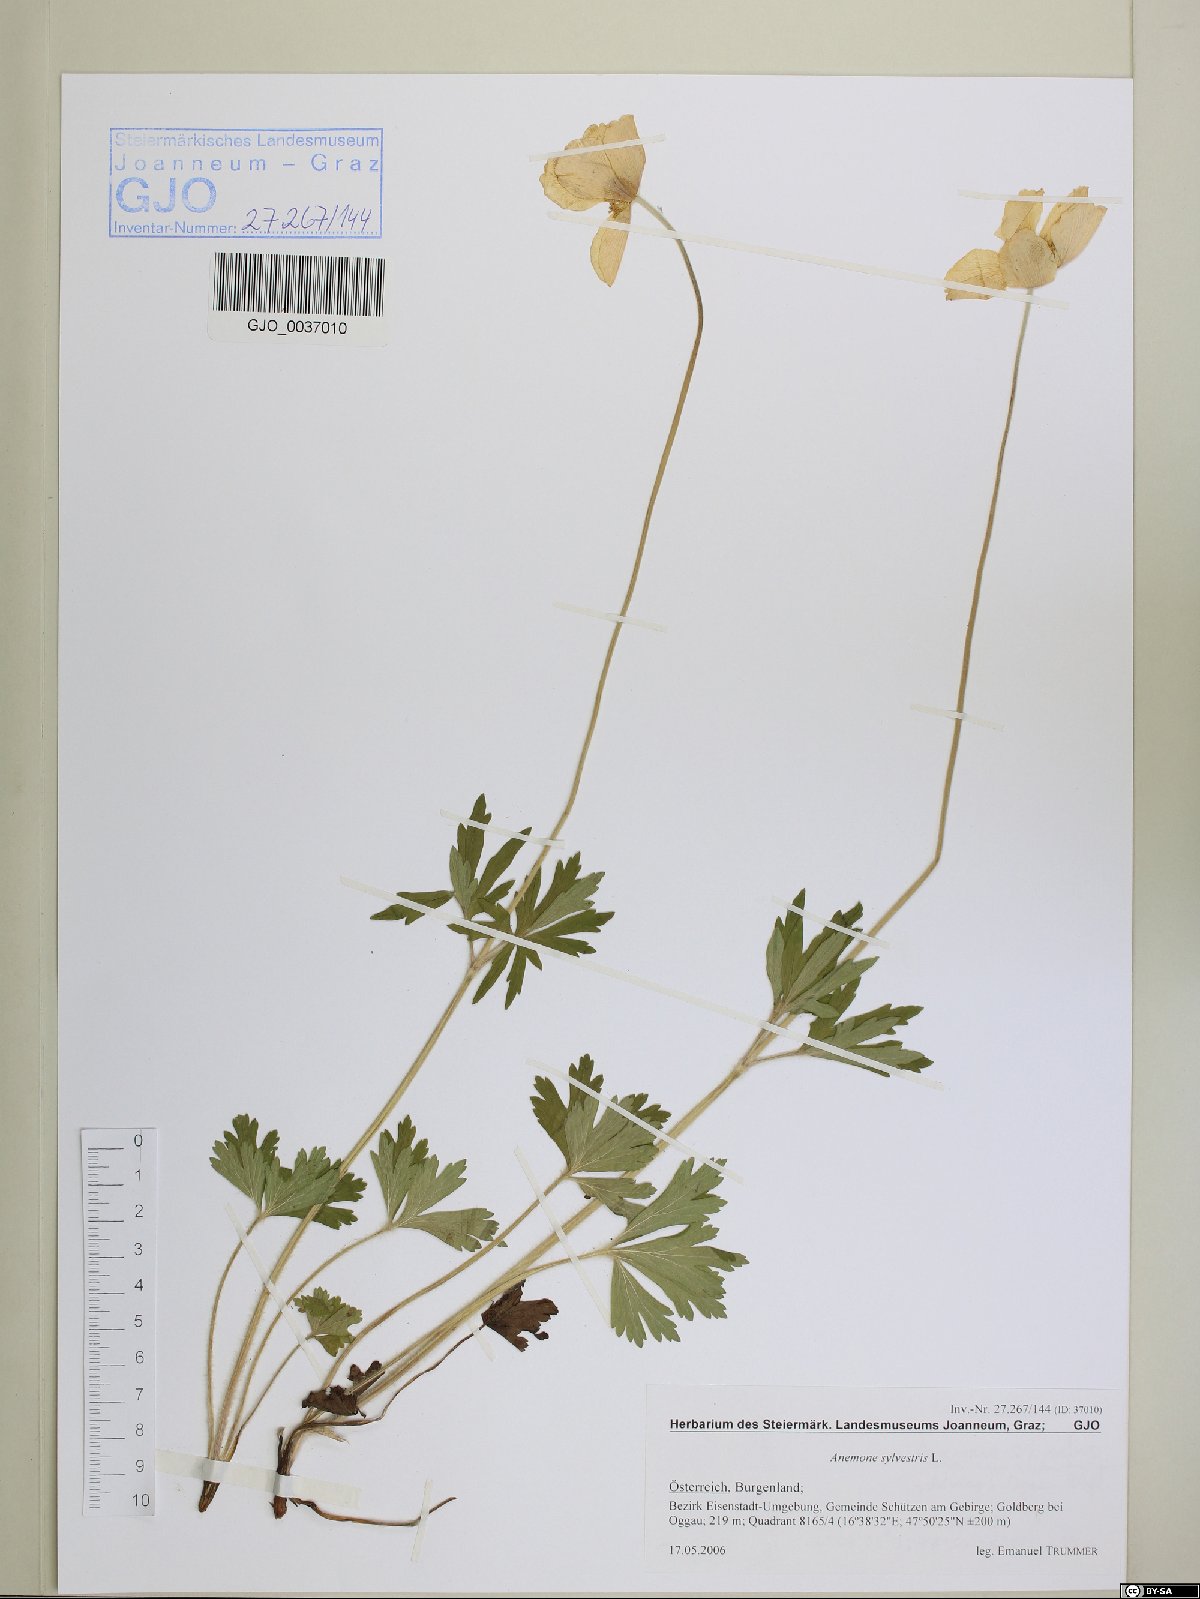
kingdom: Plantae
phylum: Tracheophyta
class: Magnoliopsida
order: Ranunculales
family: Ranunculaceae
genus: Anemone
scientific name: Anemone sylvestris
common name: Snowdrop anemone
